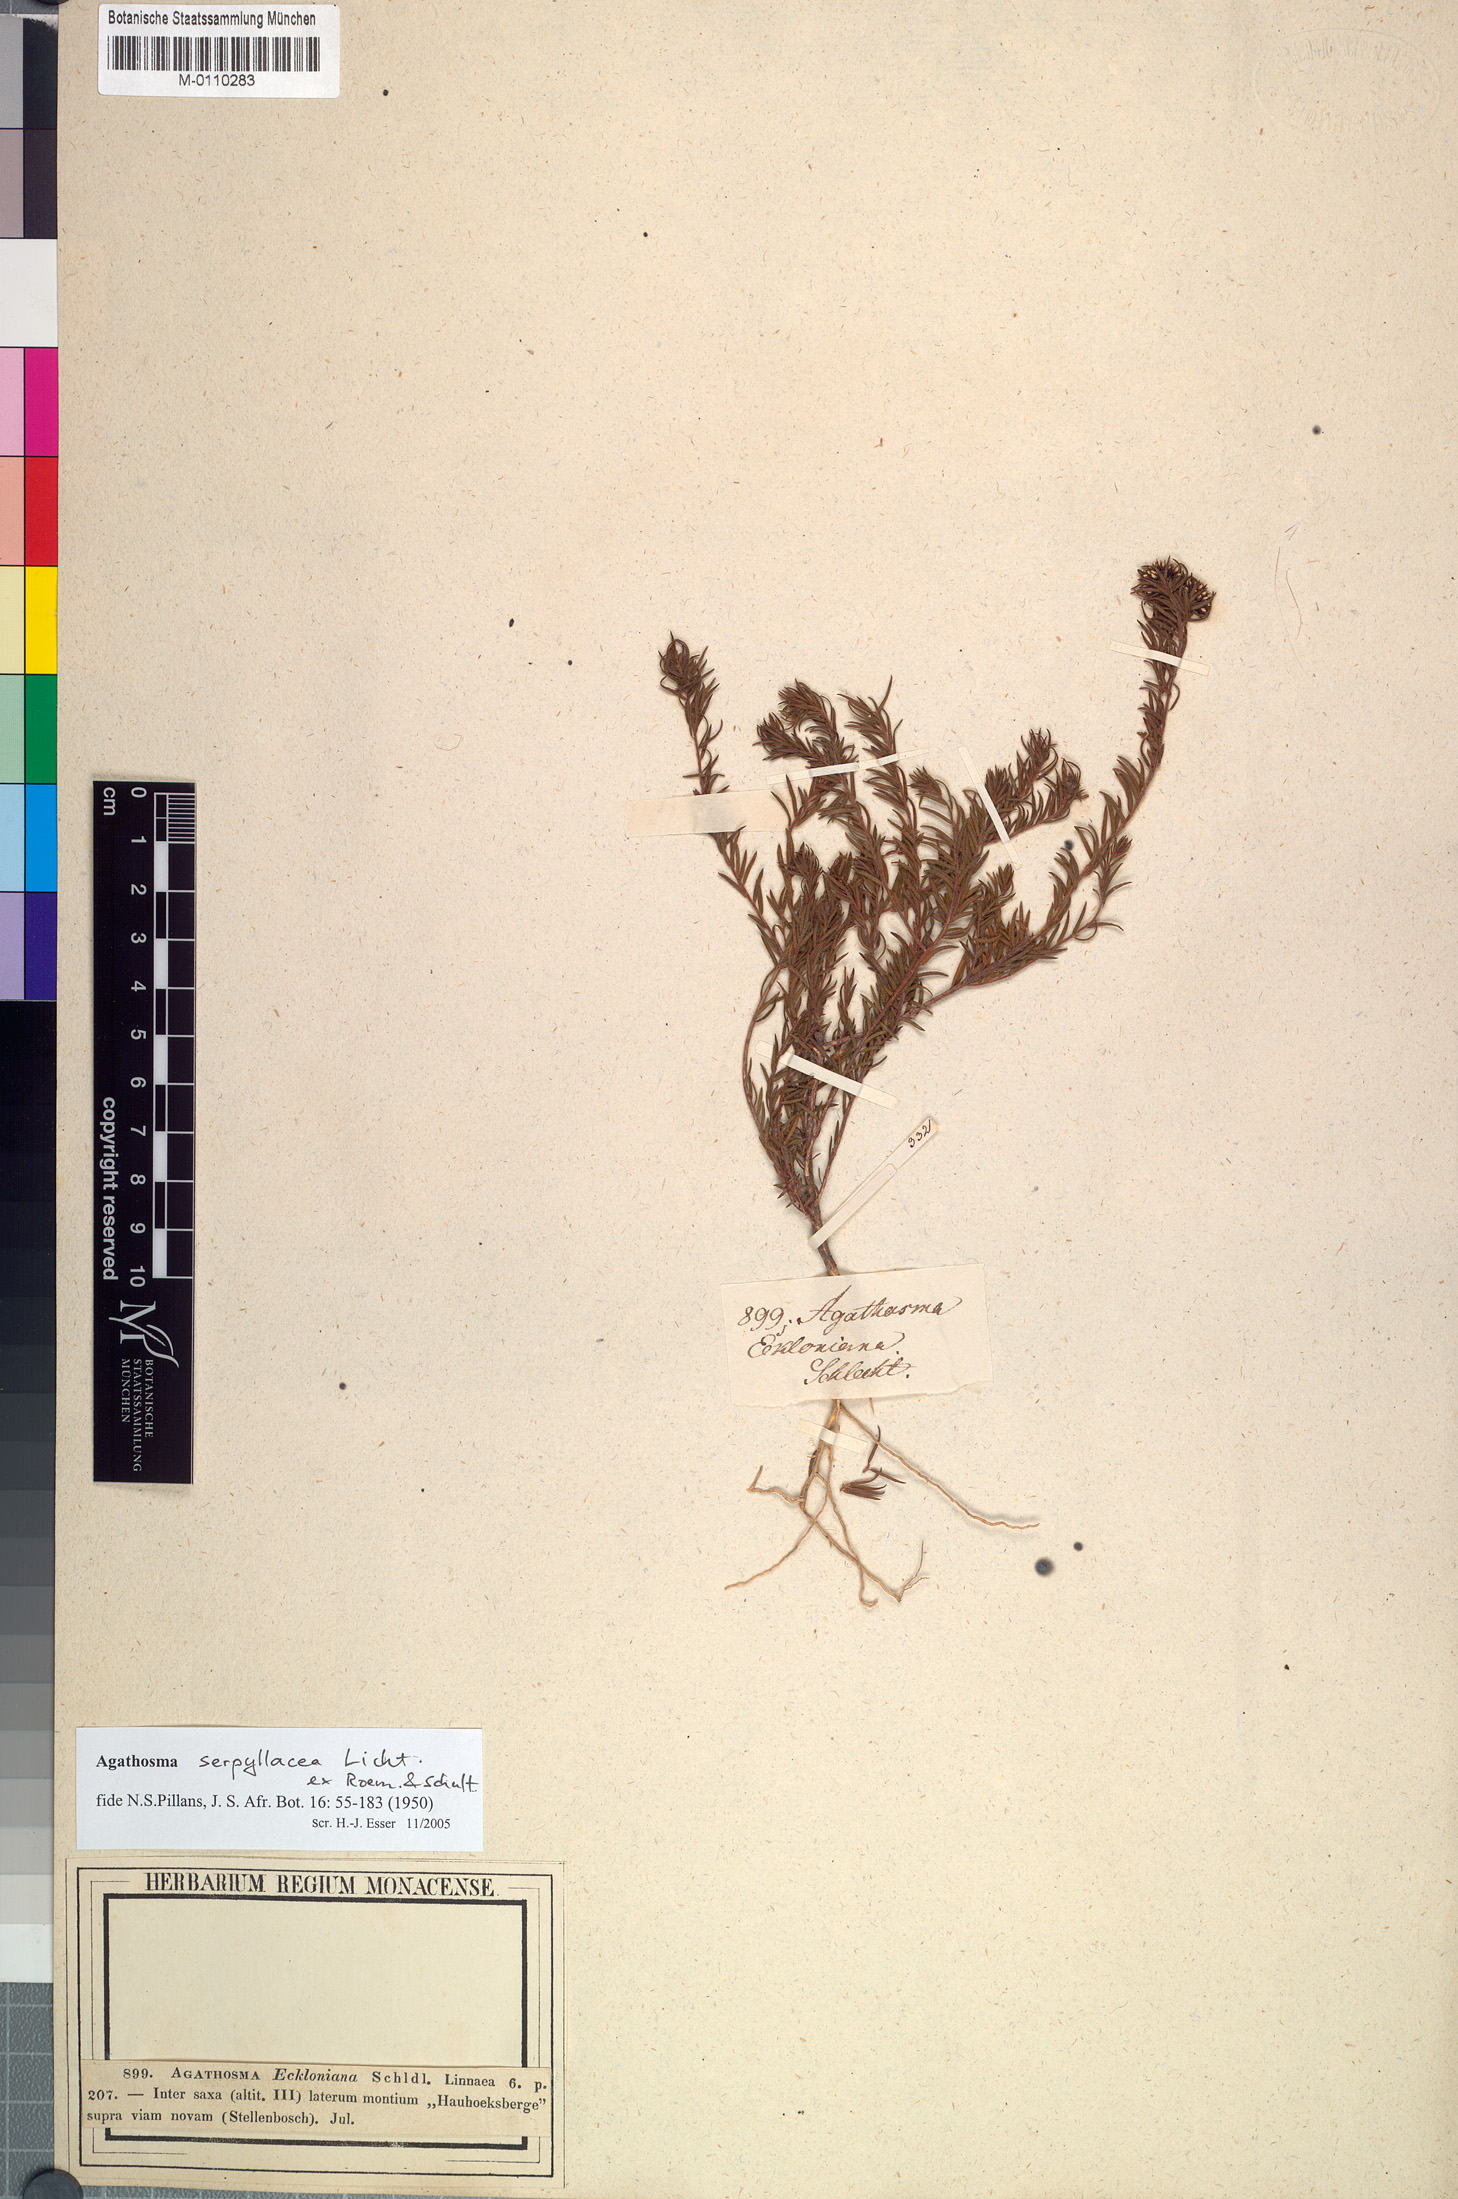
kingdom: Plantae
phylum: Tracheophyta
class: Magnoliopsida
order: Sapindales
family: Rutaceae
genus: Agathosma
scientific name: Agathosma serpyllacea
